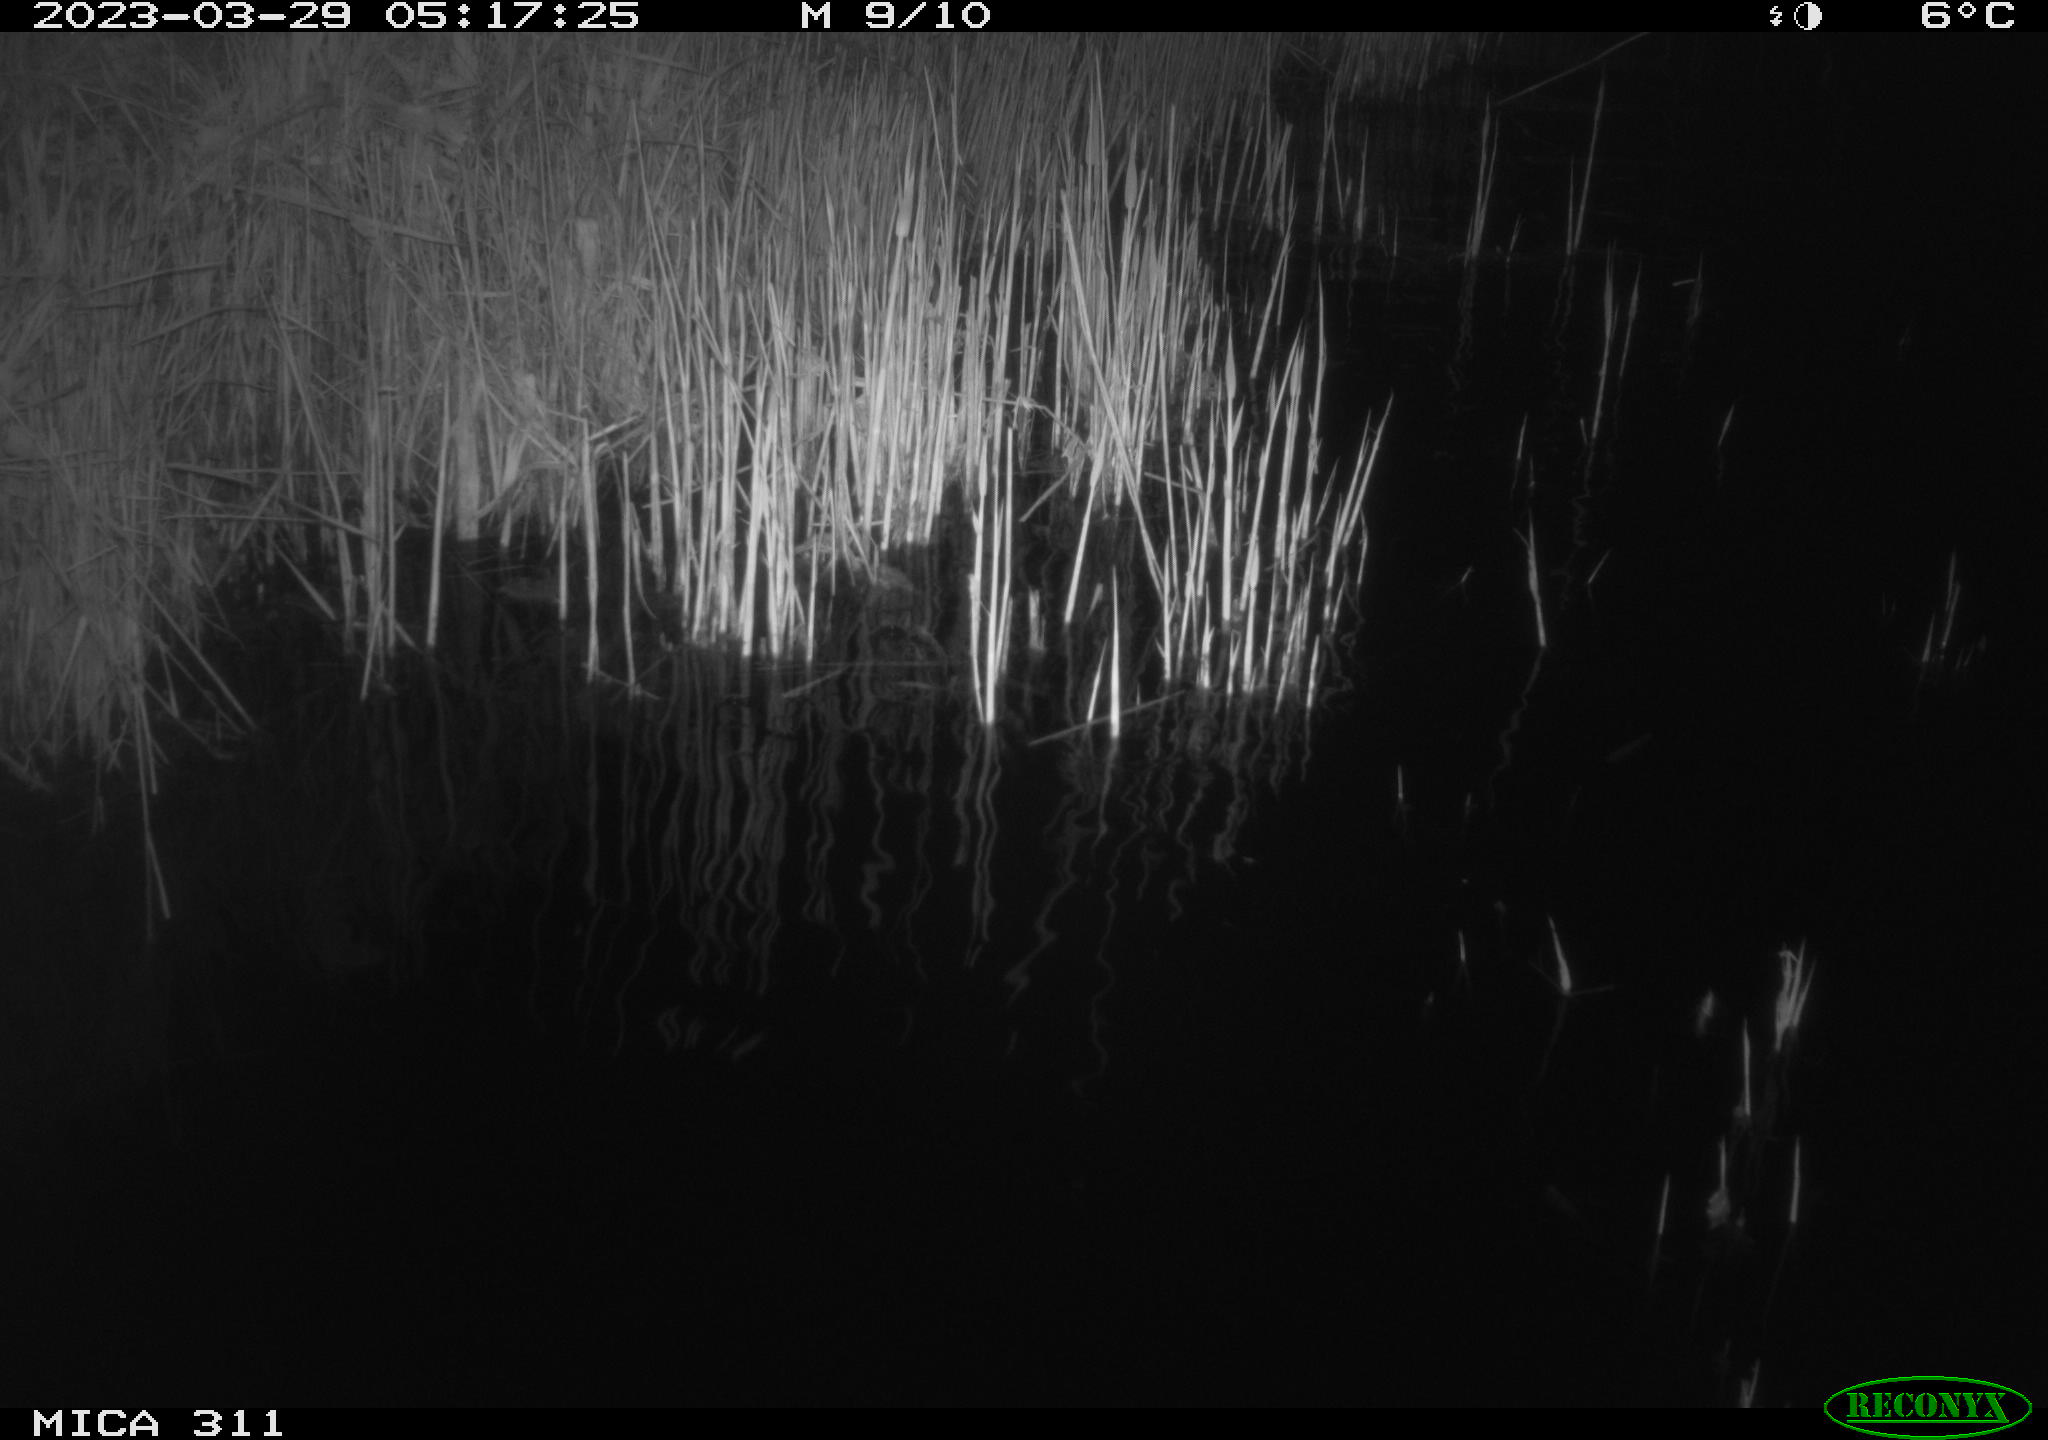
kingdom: Animalia
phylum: Chordata
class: Aves
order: Gruiformes
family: Rallidae
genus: Gallinula
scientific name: Gallinula chloropus
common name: Common moorhen
